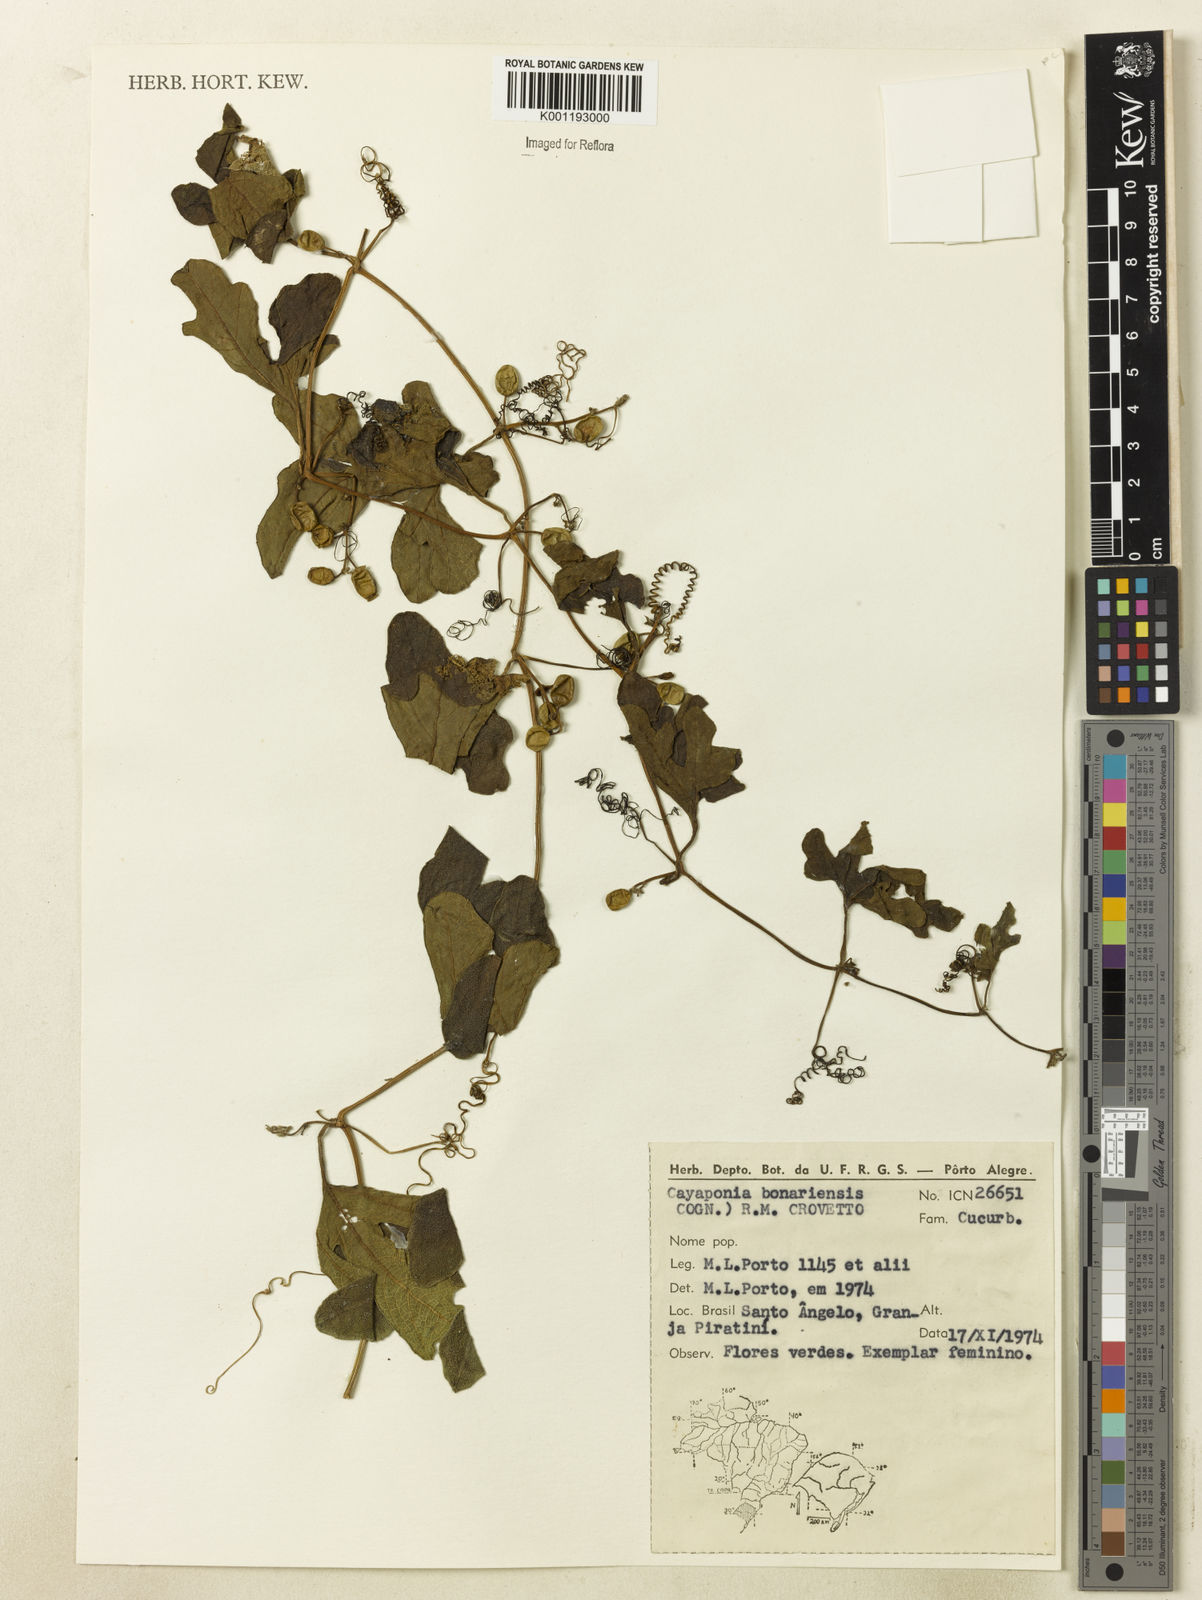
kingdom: Plantae
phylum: Tracheophyta
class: Magnoliopsida
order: Cucurbitales
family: Cucurbitaceae
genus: Cayaponia
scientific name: Cayaponia bonariensis
